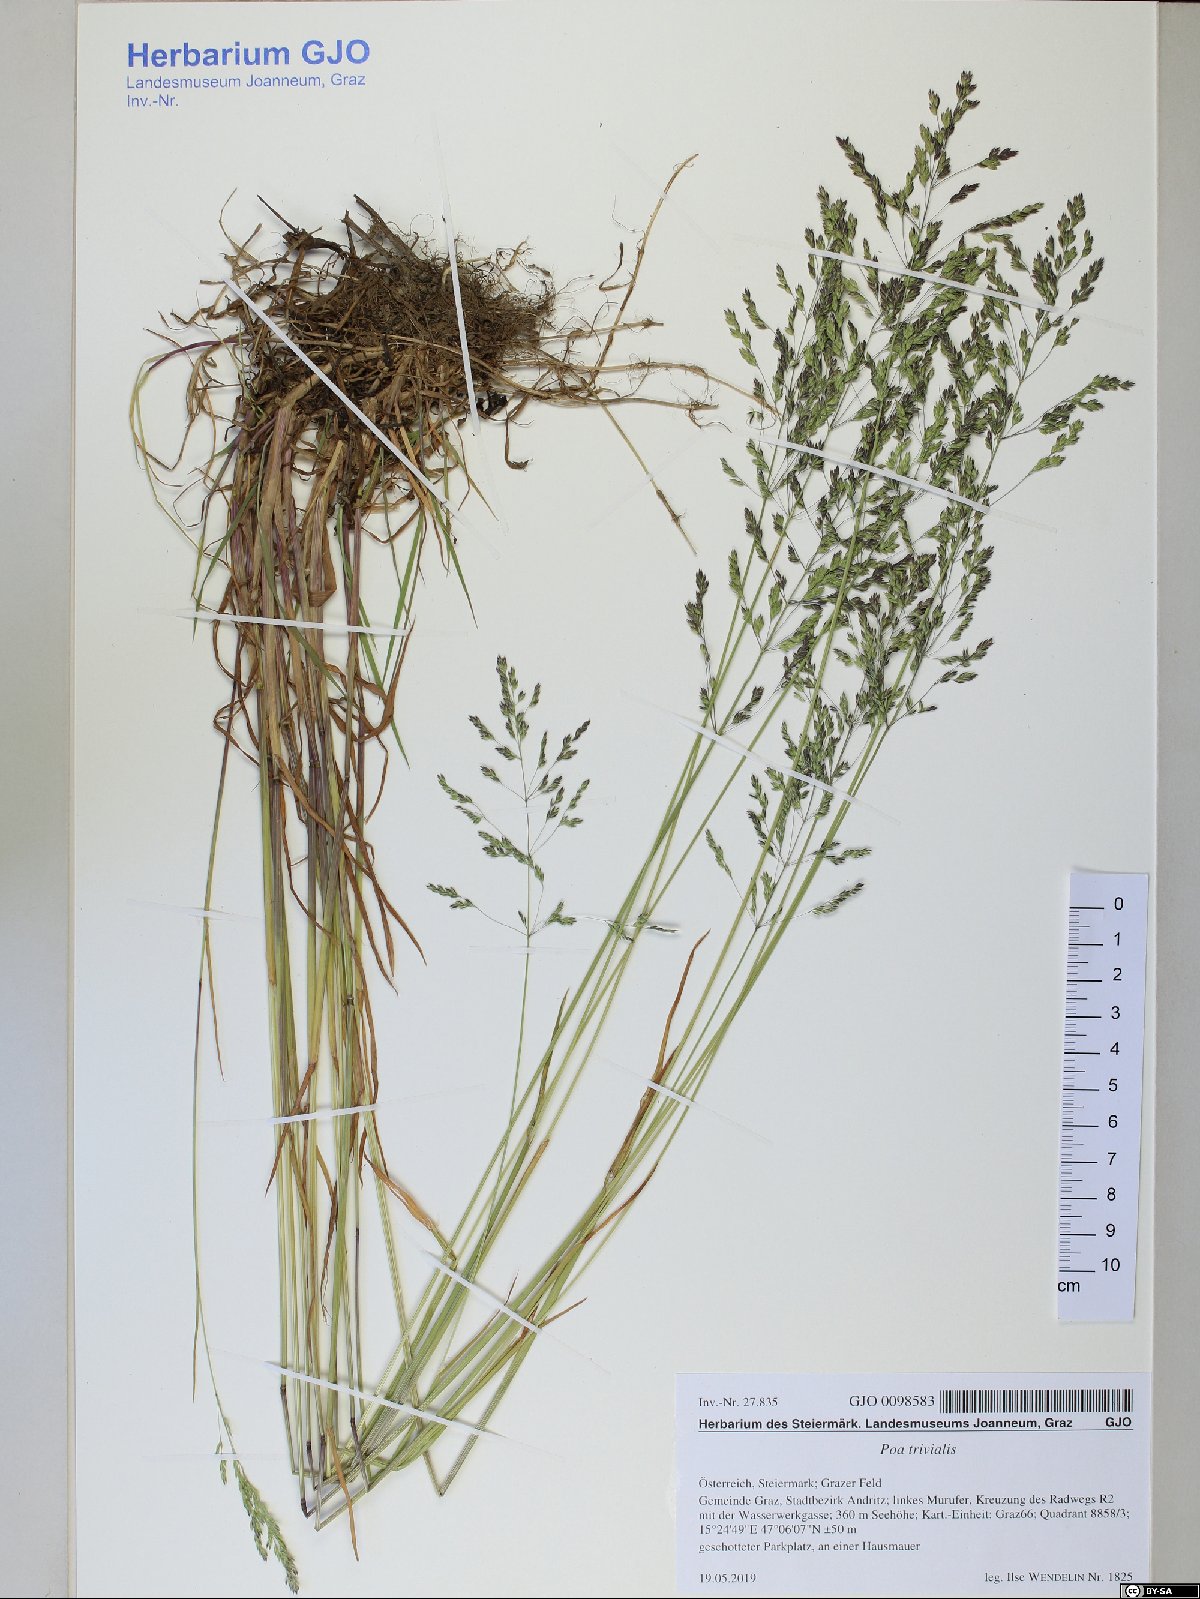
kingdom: Plantae
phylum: Tracheophyta
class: Liliopsida
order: Poales
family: Poaceae
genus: Poa
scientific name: Poa trivialis
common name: Rough bluegrass
